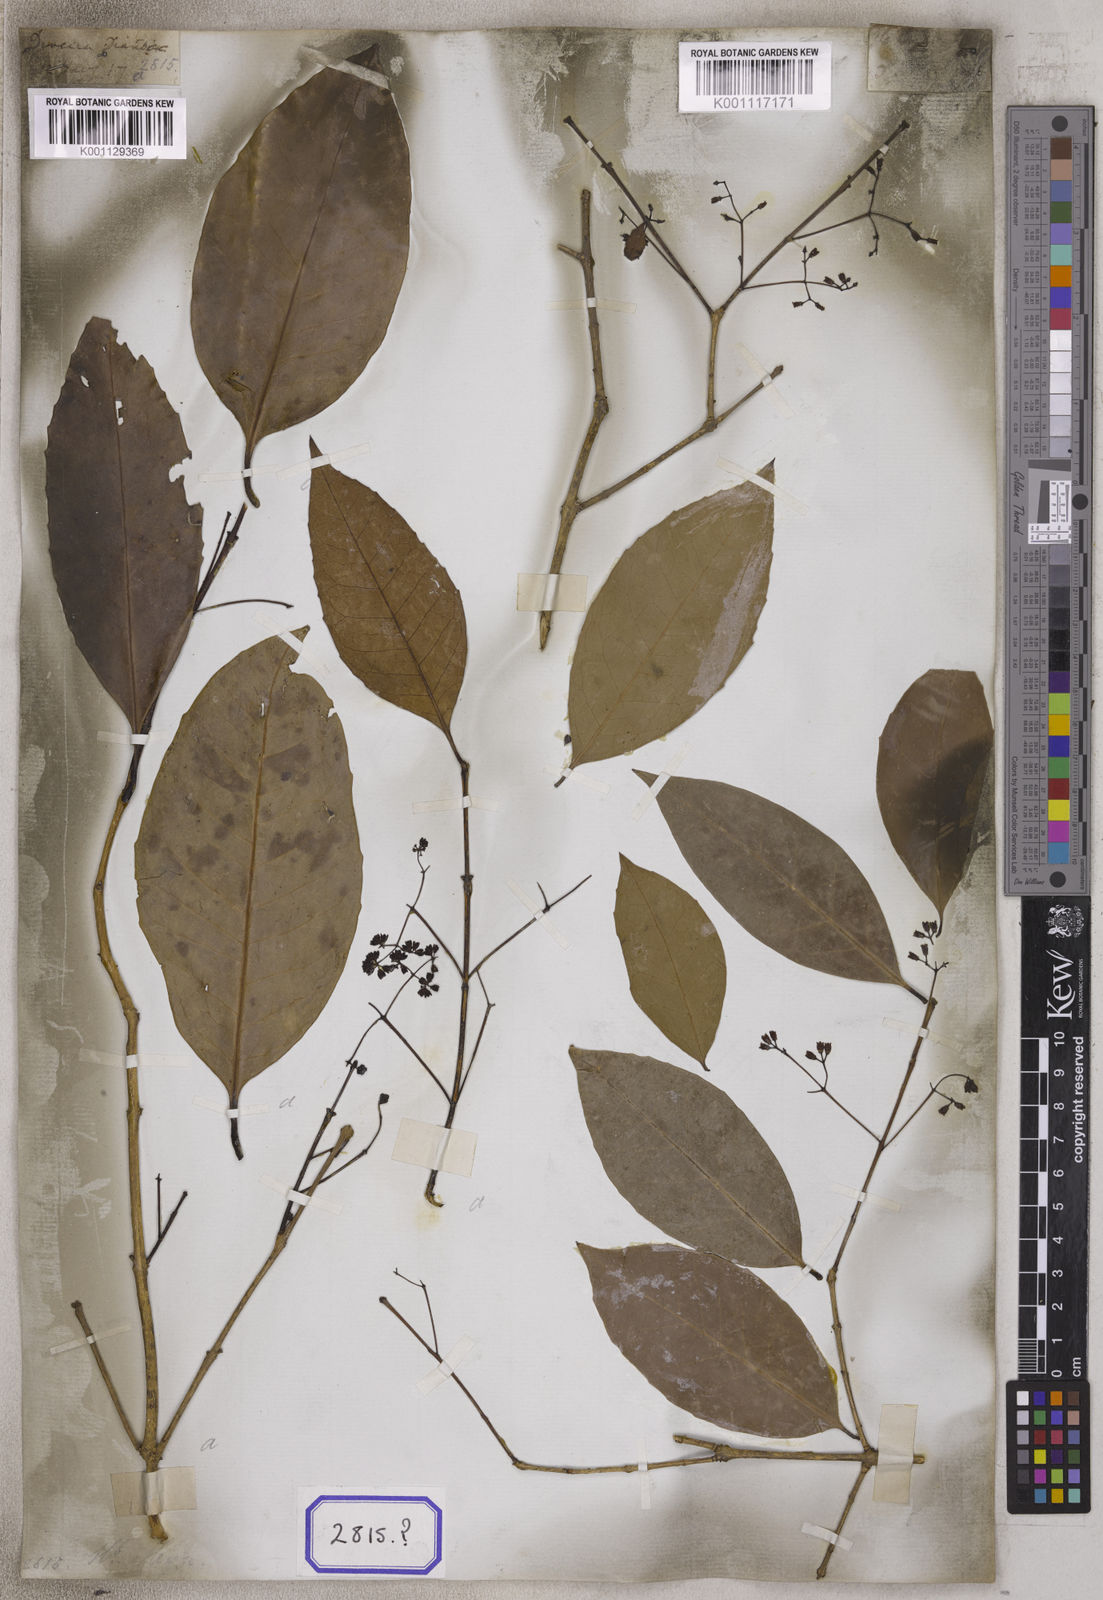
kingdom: Plantae
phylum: Tracheophyta
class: Magnoliopsida
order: Lamiales
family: Oleaceae
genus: Olea
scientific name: Olea
